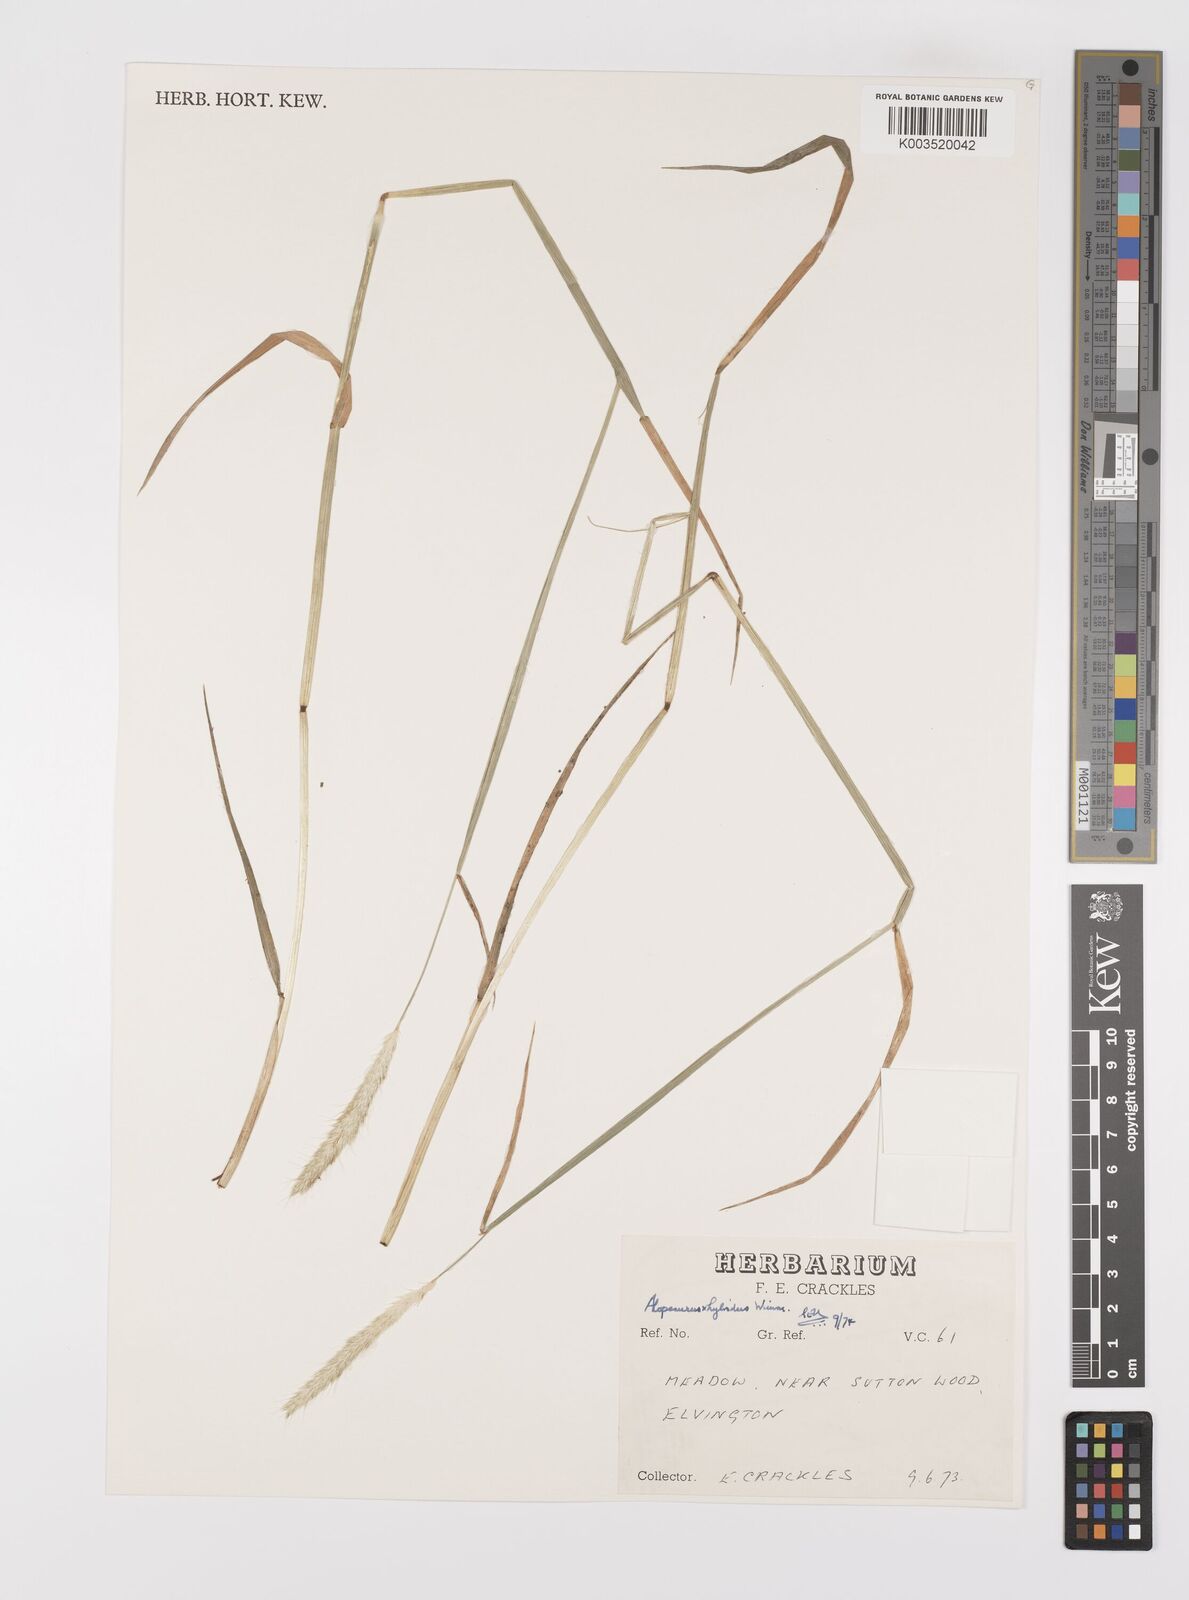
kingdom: Plantae
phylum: Tracheophyta
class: Liliopsida
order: Poales
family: Poaceae
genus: Alopecurus
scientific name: Alopecurus brachystylus
